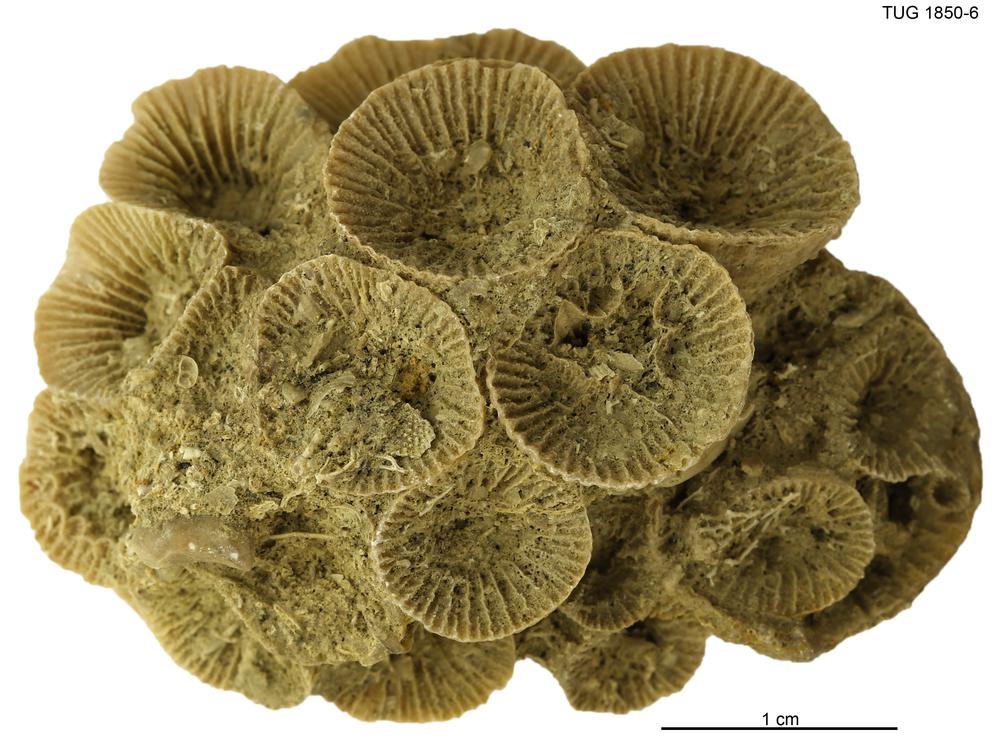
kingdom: Animalia
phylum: Cnidaria
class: Anthozoa
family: Entelophyllidae
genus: Entelophyllum
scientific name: Entelophyllum
